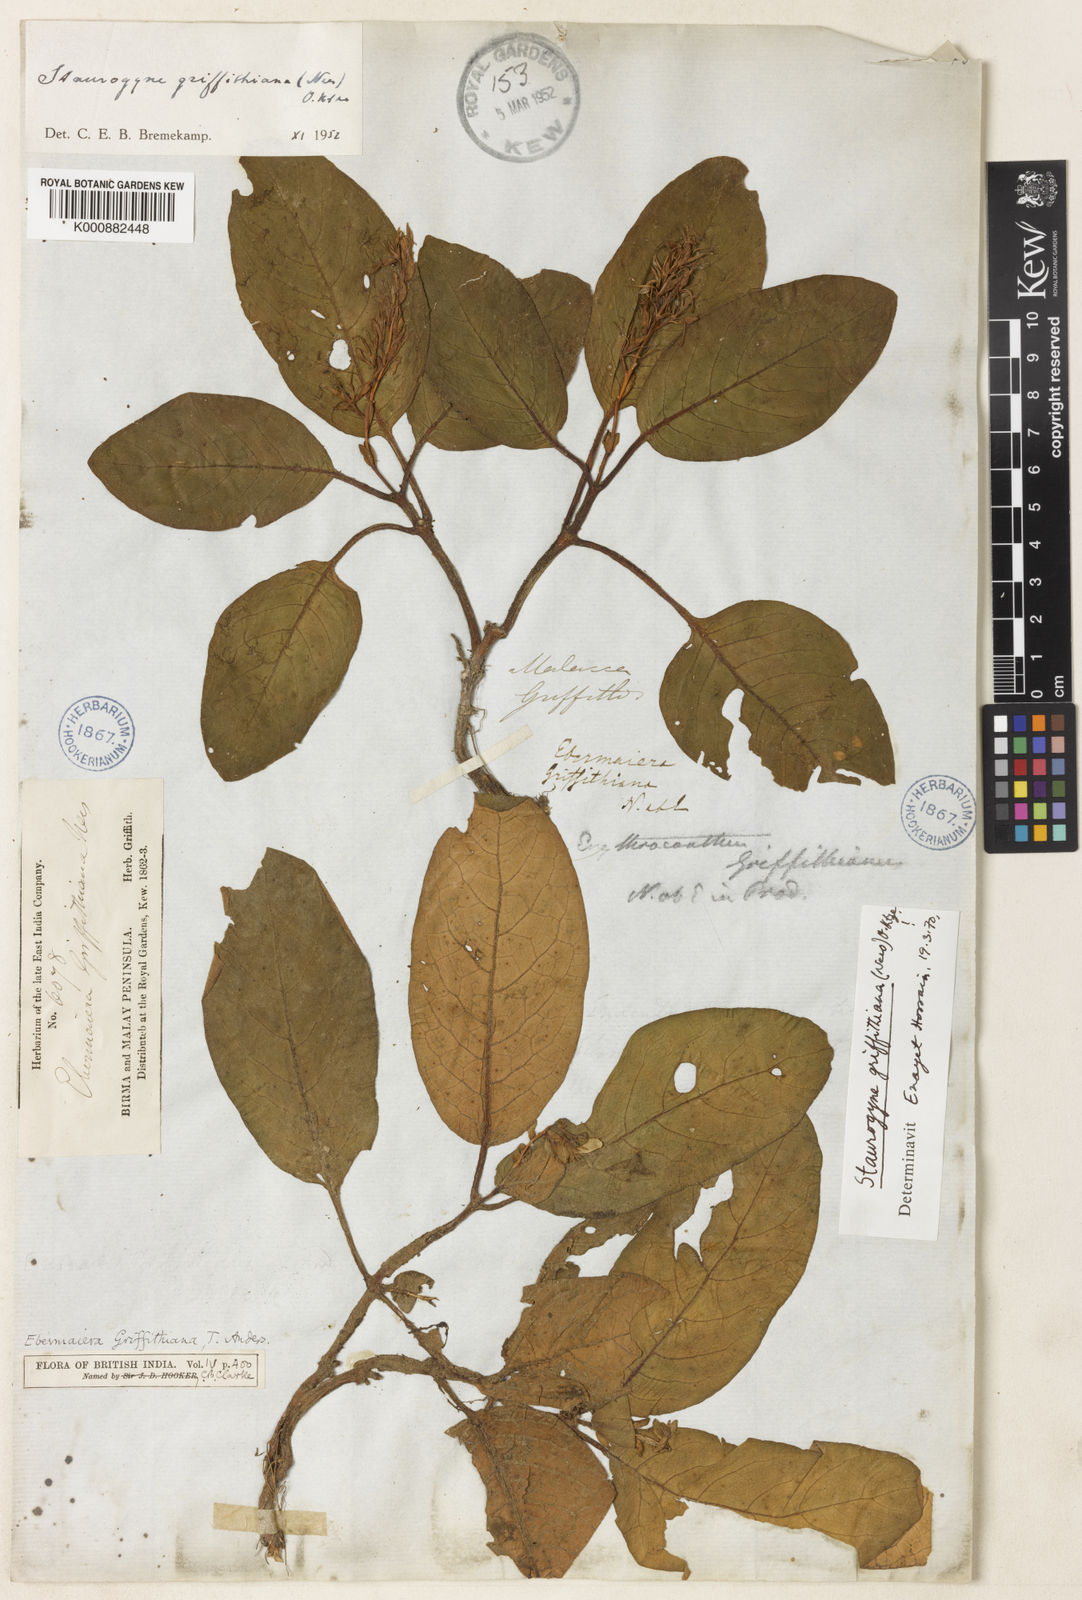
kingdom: Plantae
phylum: Tracheophyta
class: Magnoliopsida
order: Lamiales
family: Acanthaceae
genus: Staurogyne
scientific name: Staurogyne griffithiana
